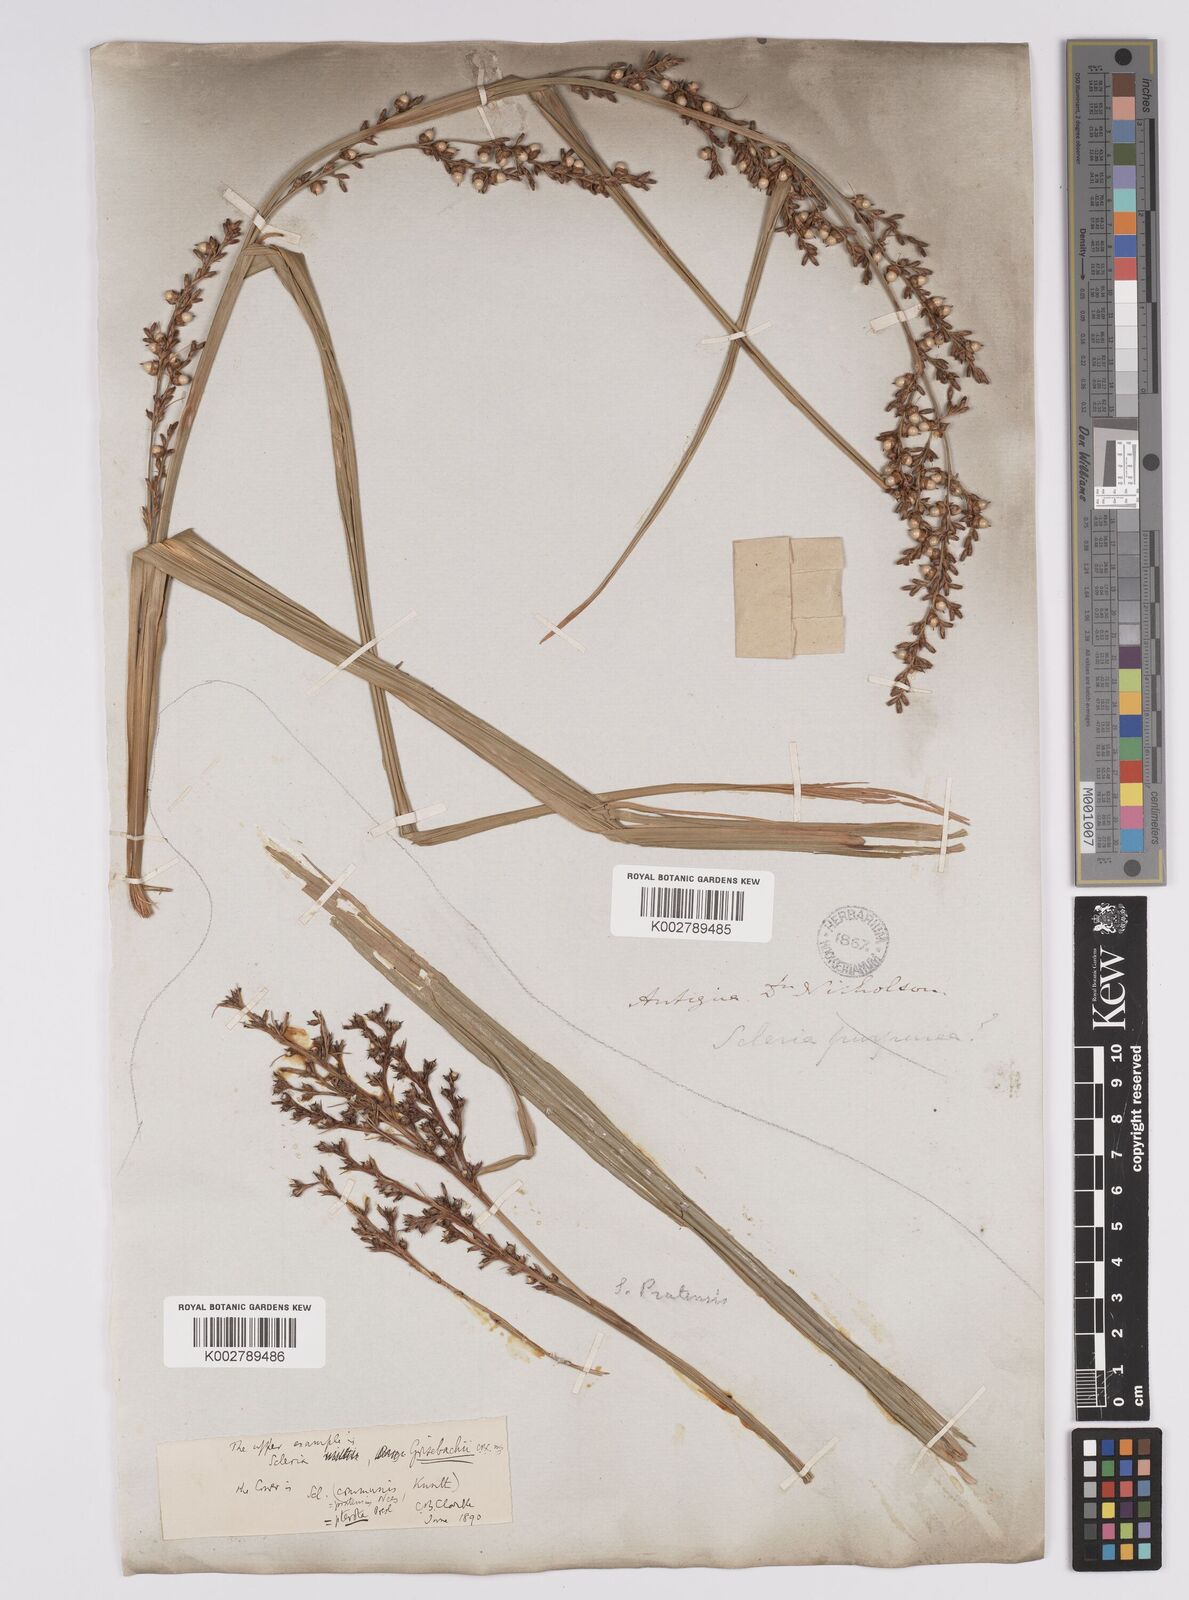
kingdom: Plantae
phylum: Tracheophyta
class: Liliopsida
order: Poales
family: Cyperaceae
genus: Scleria
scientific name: Scleria eggersiana
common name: Eggers' nutrush
